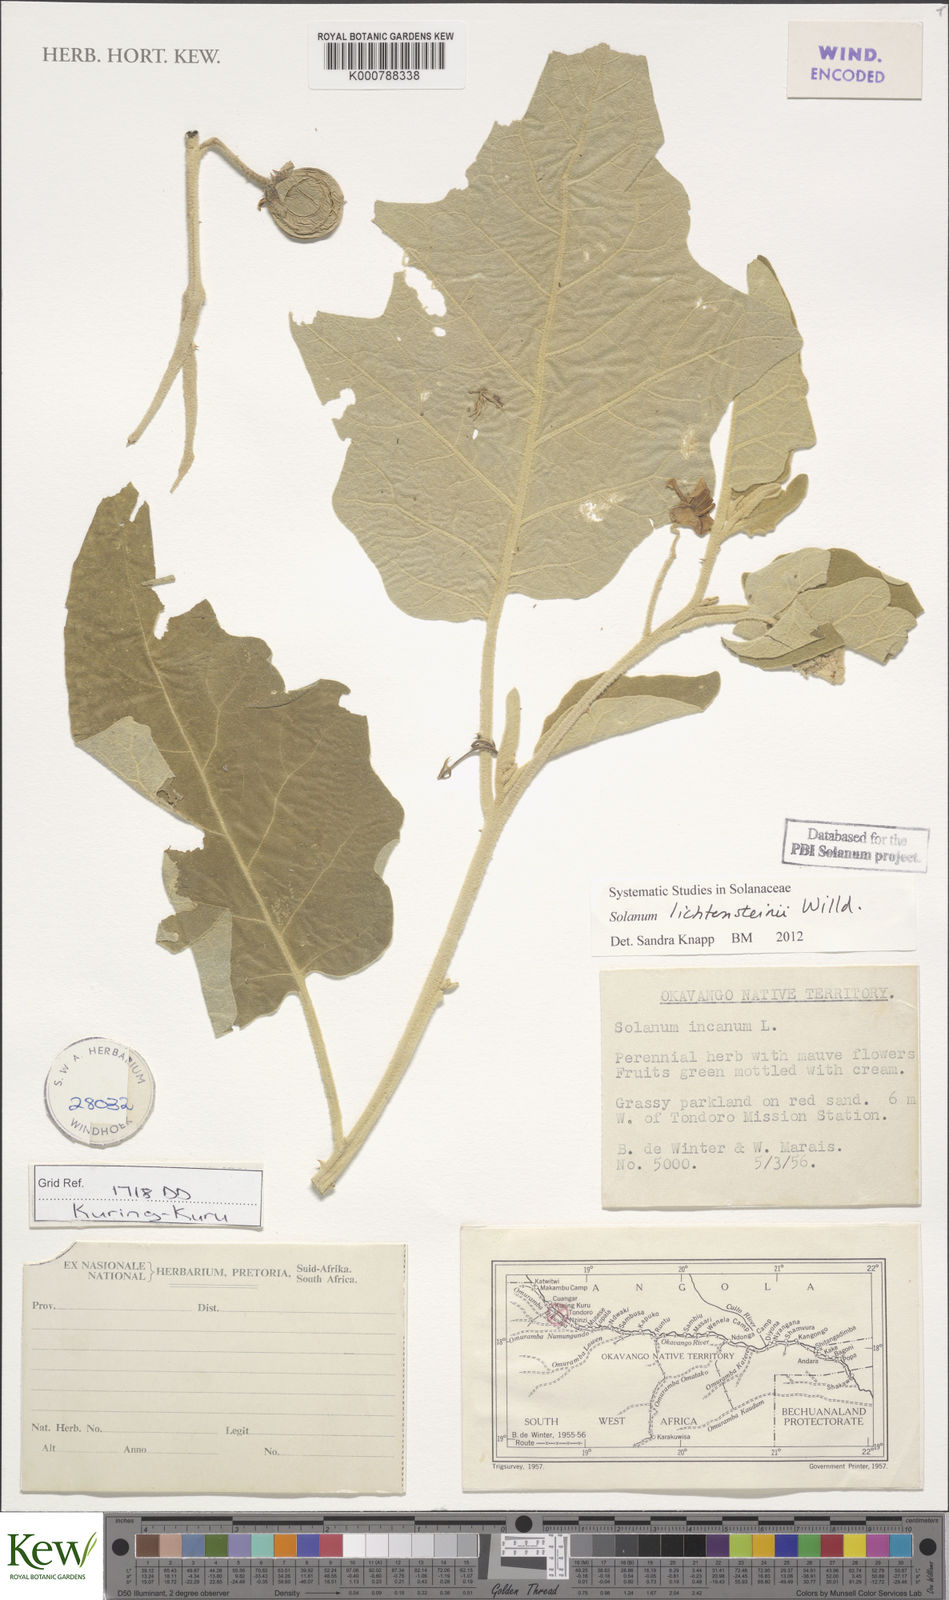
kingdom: Plantae
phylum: Tracheophyta
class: Magnoliopsida
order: Solanales
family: Solanaceae
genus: Solanum
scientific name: Solanum lichtensteinii
